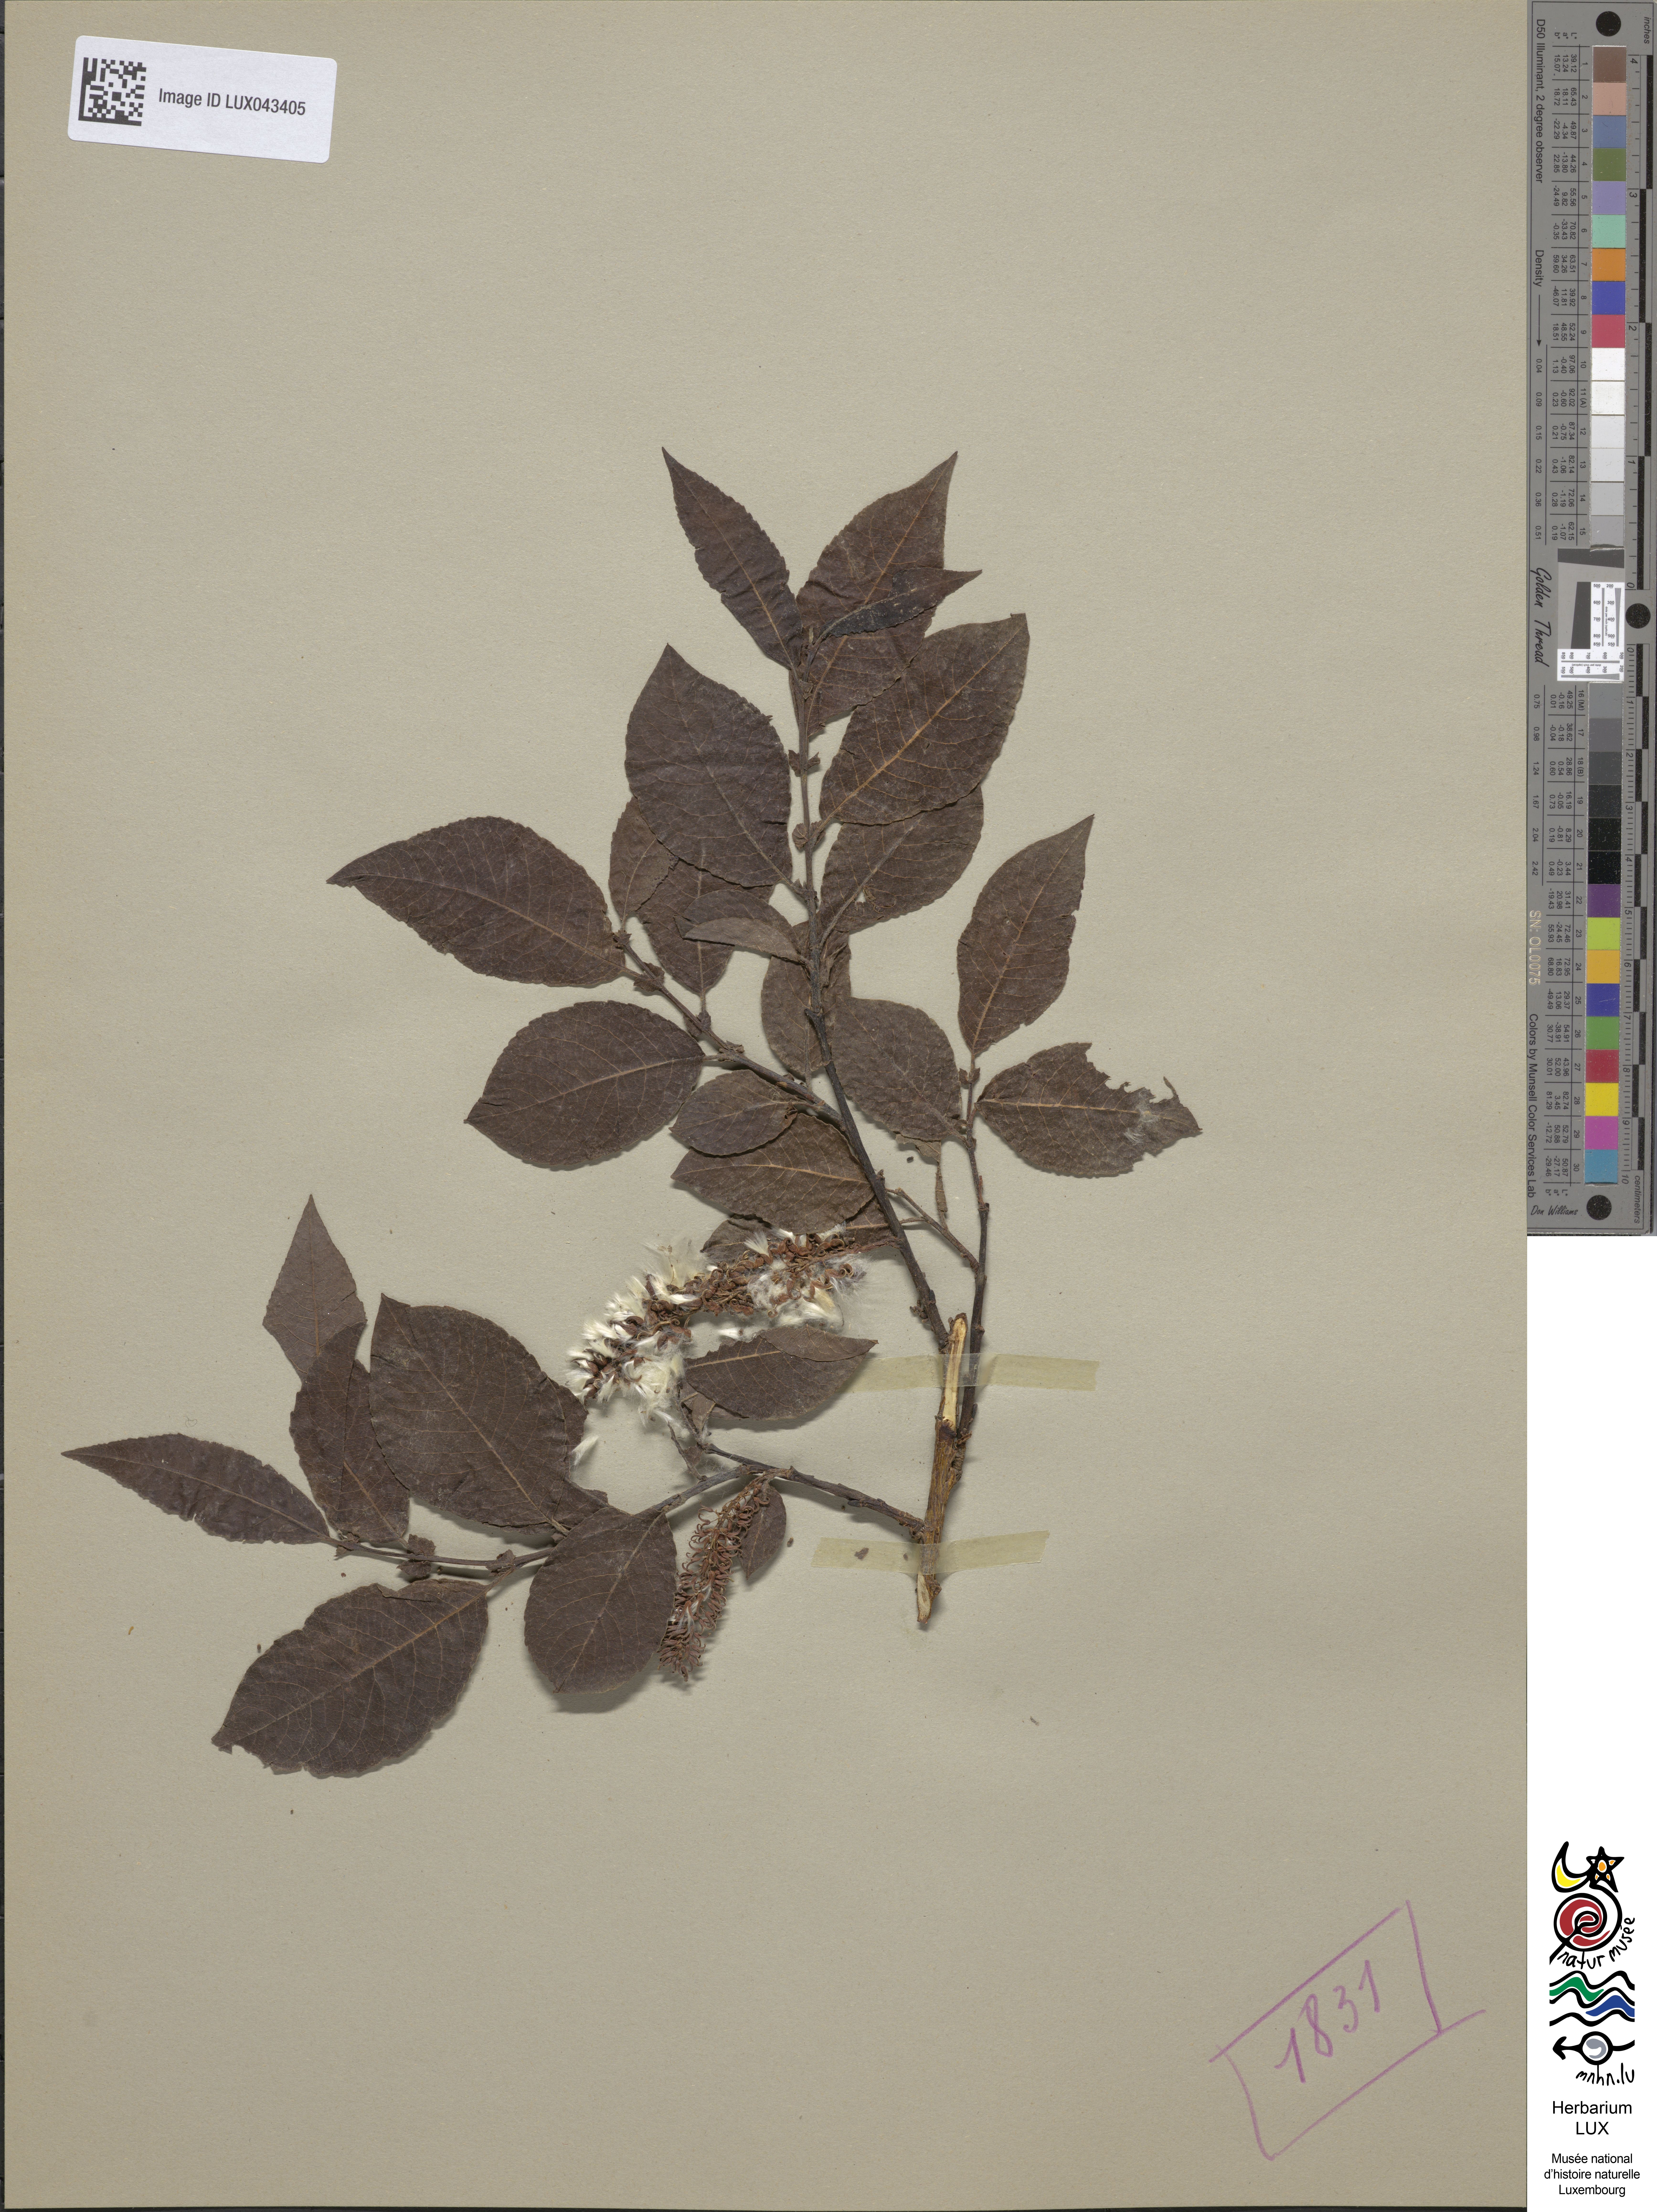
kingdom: Plantae
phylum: Tracheophyta
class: Magnoliopsida
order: Malpighiales
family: Salicaceae
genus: Salix
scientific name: Salix silesiaca
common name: Silesian willow
